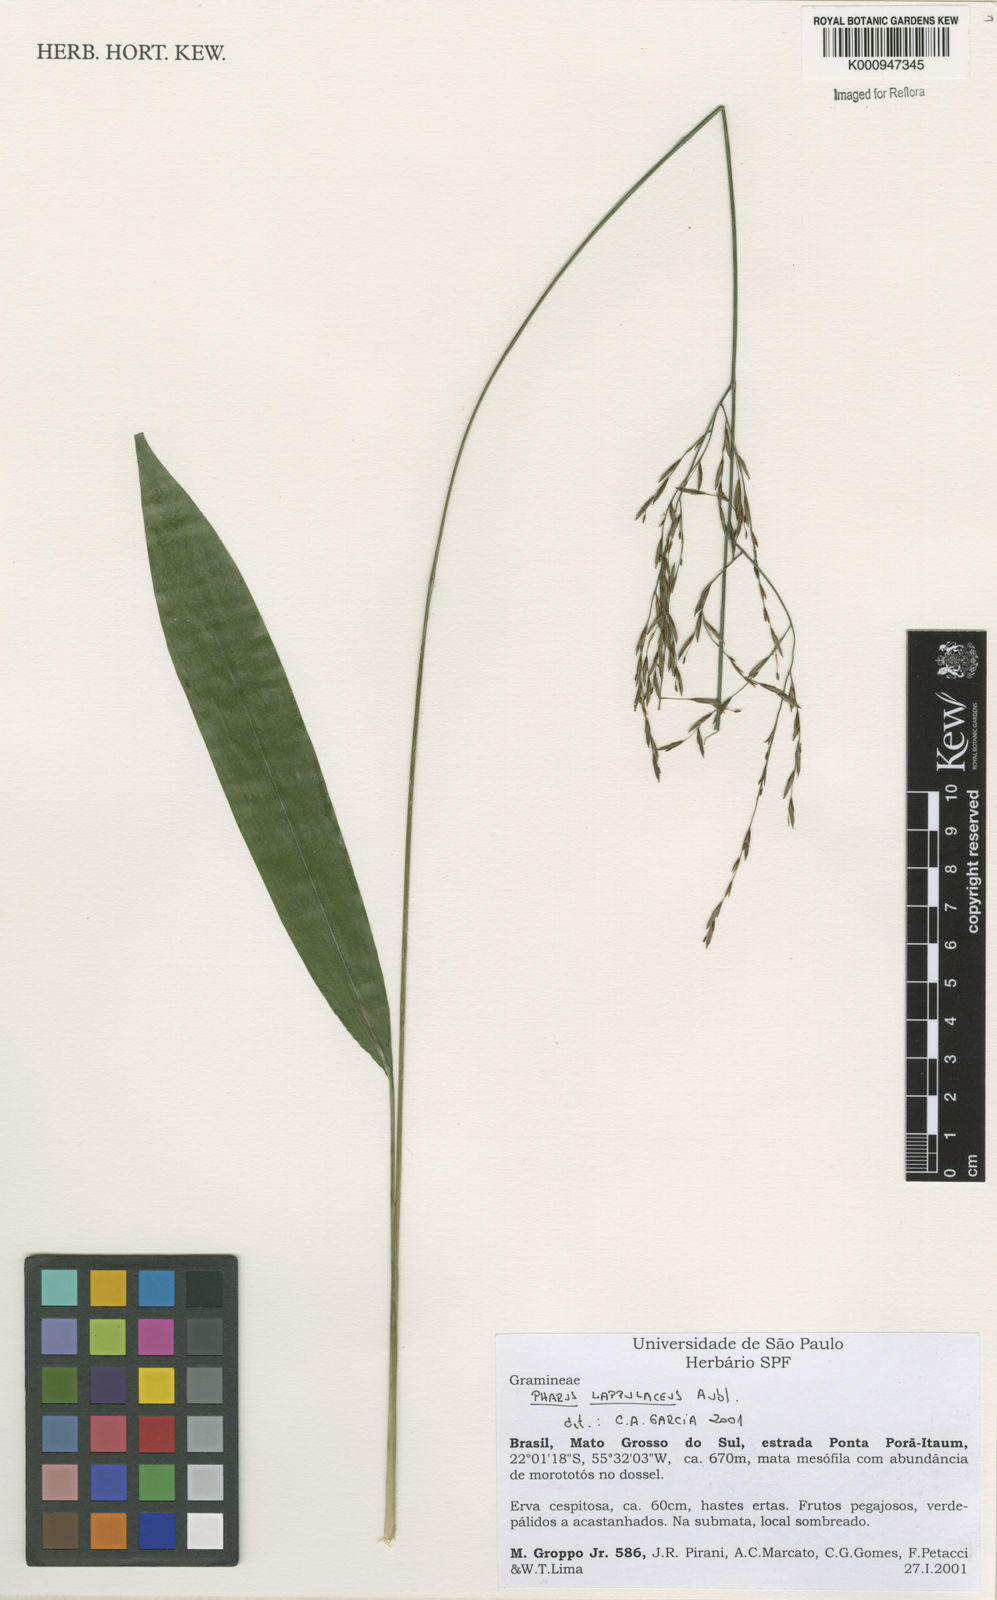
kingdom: Plantae
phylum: Tracheophyta
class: Liliopsida
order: Poales
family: Poaceae
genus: Pharus
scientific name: Pharus lappulaceus
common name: Creeping leafstalk grass
